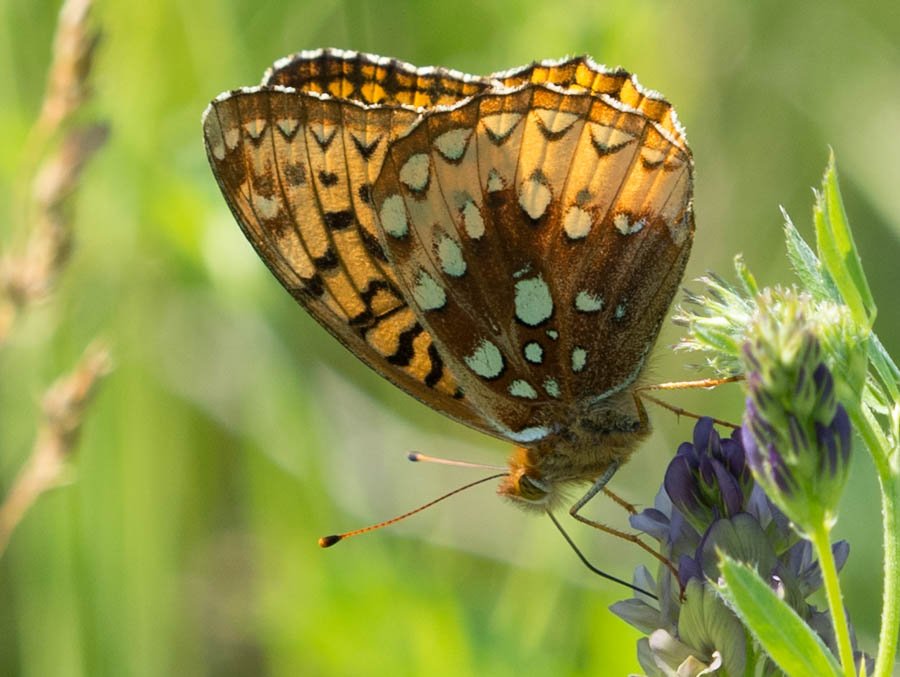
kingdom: Animalia
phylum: Arthropoda
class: Insecta
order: Lepidoptera
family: Nymphalidae
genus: Speyeria
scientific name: Speyeria cybele
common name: Great Spangled Fritillary
